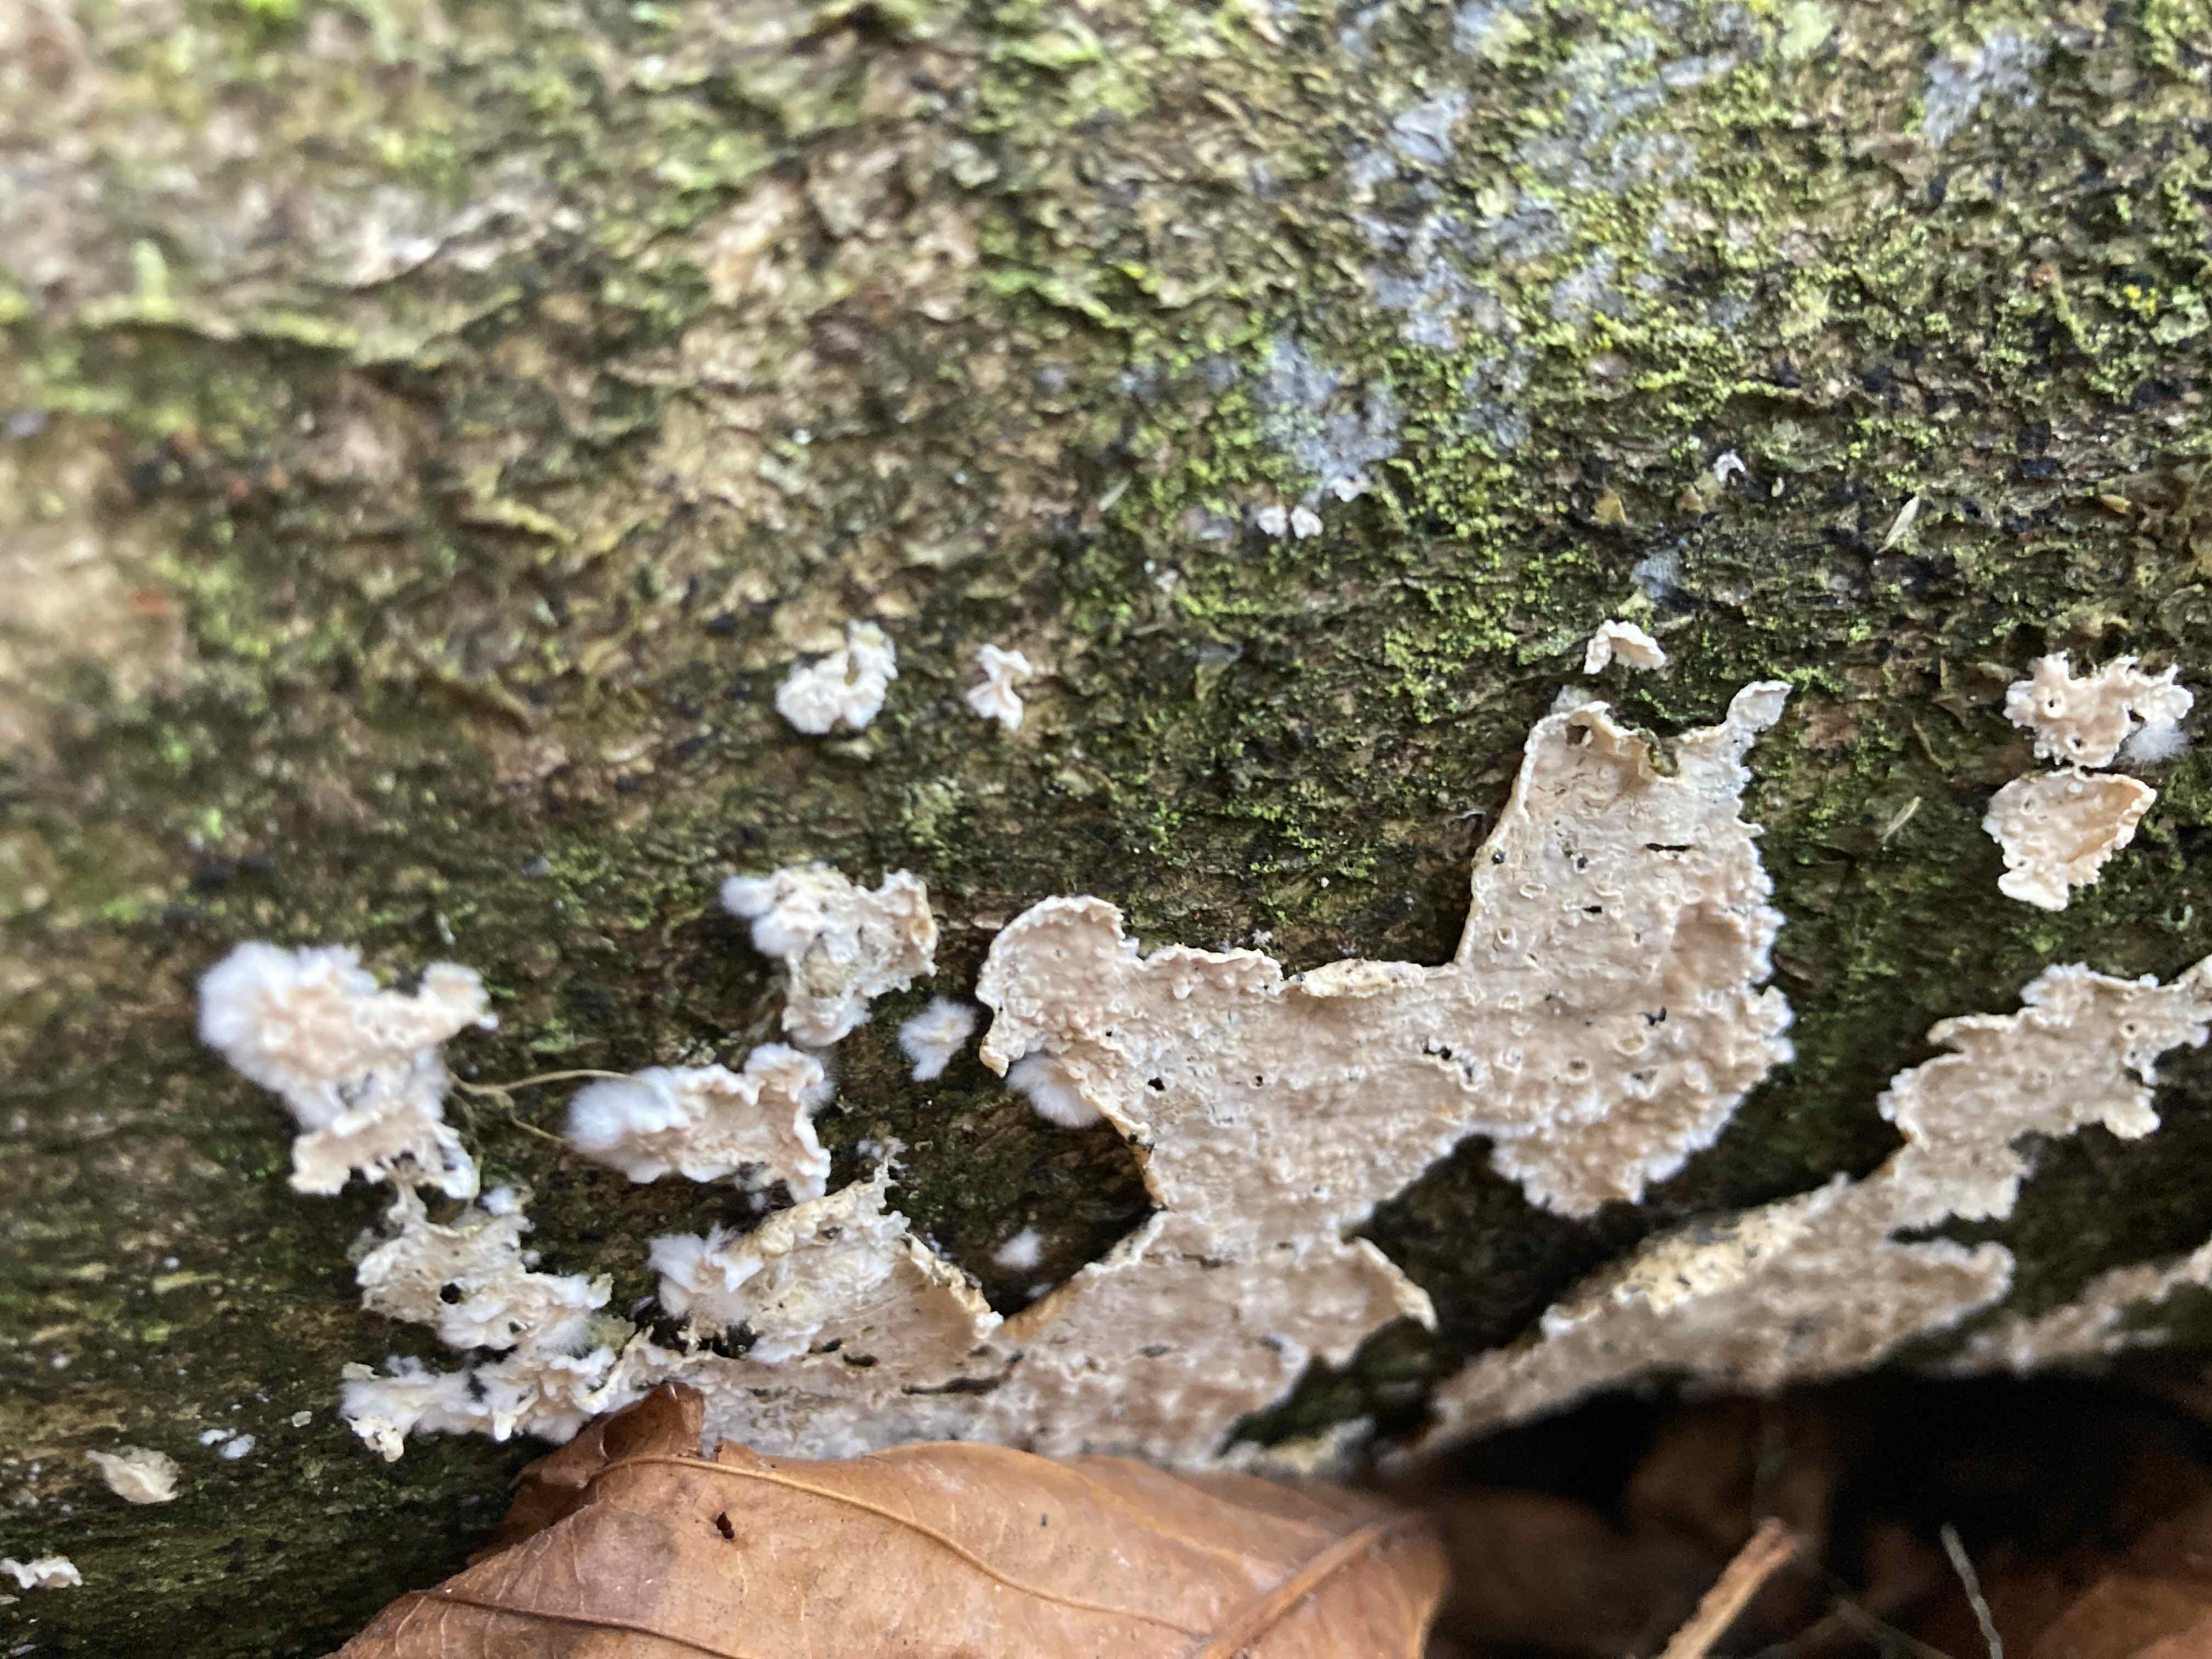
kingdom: Fungi
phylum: Basidiomycota
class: Agaricomycetes
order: Agaricales
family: Physalacriaceae
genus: Cylindrobasidium
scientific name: Cylindrobasidium evolvens
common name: sprækkehinde
